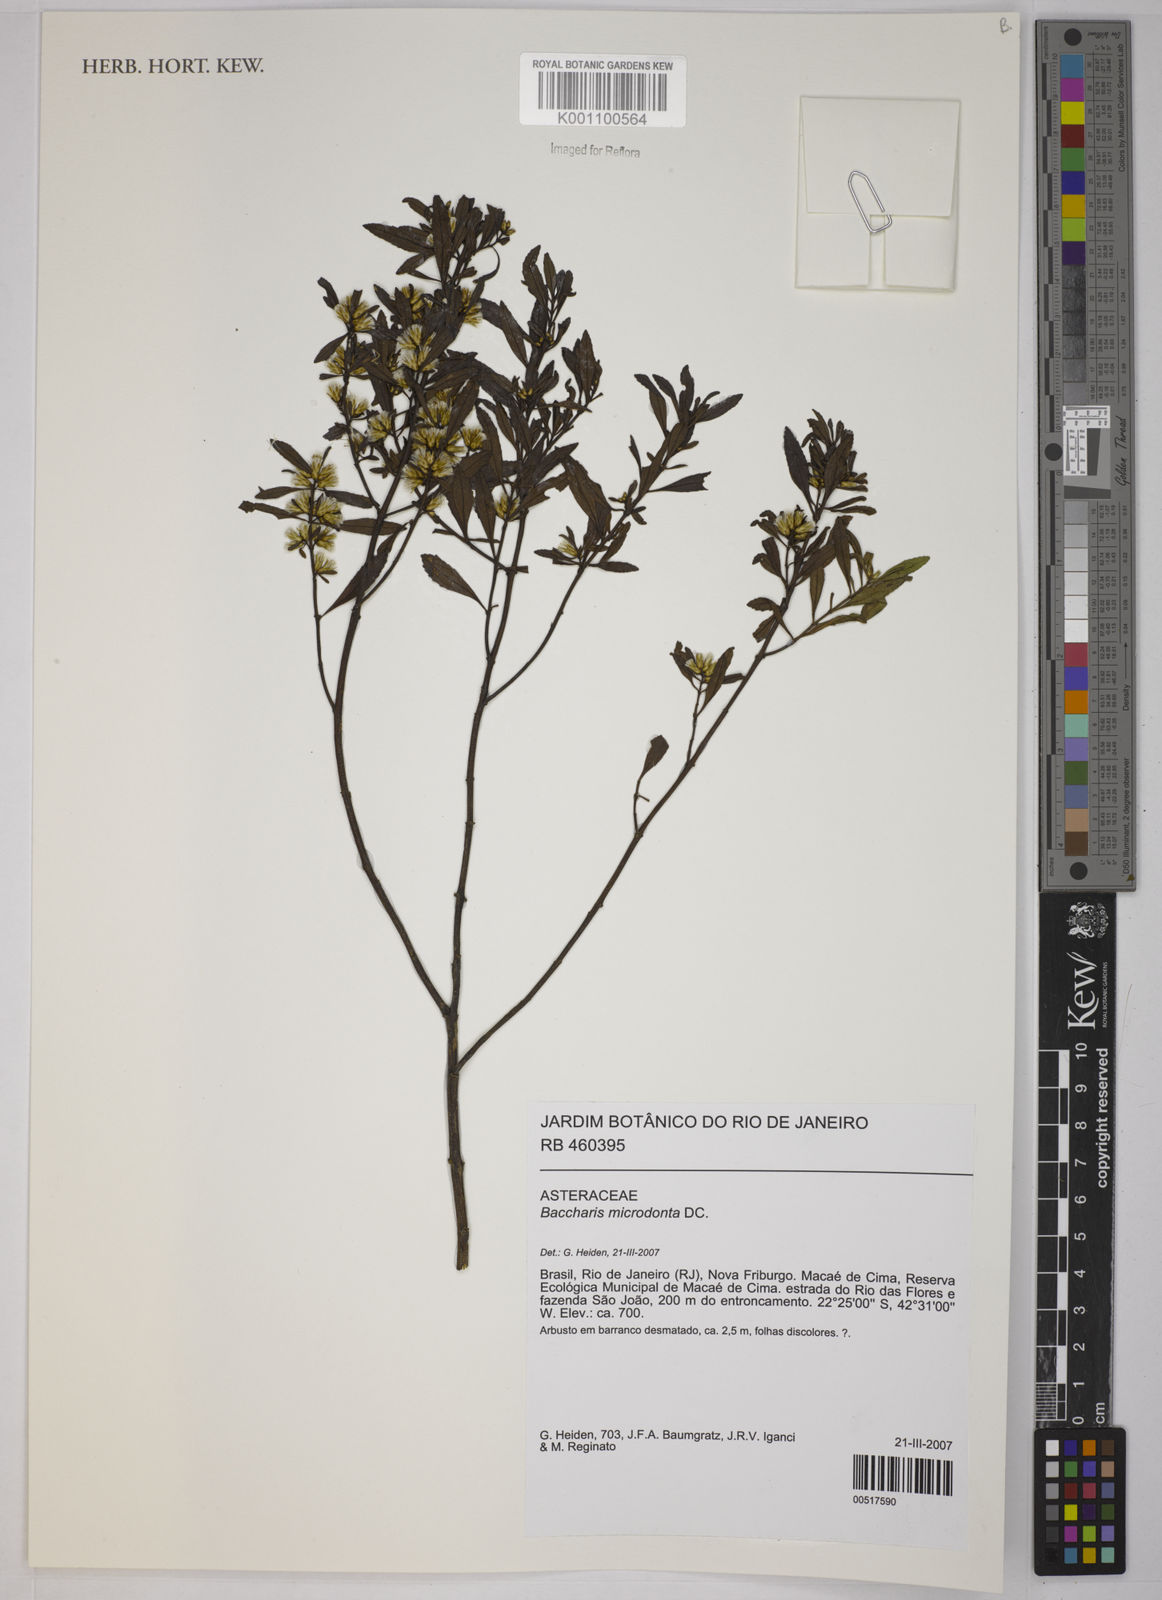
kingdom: Plantae
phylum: Tracheophyta
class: Magnoliopsida
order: Asterales
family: Asteraceae
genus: Baccharis
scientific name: Baccharis microdonta
